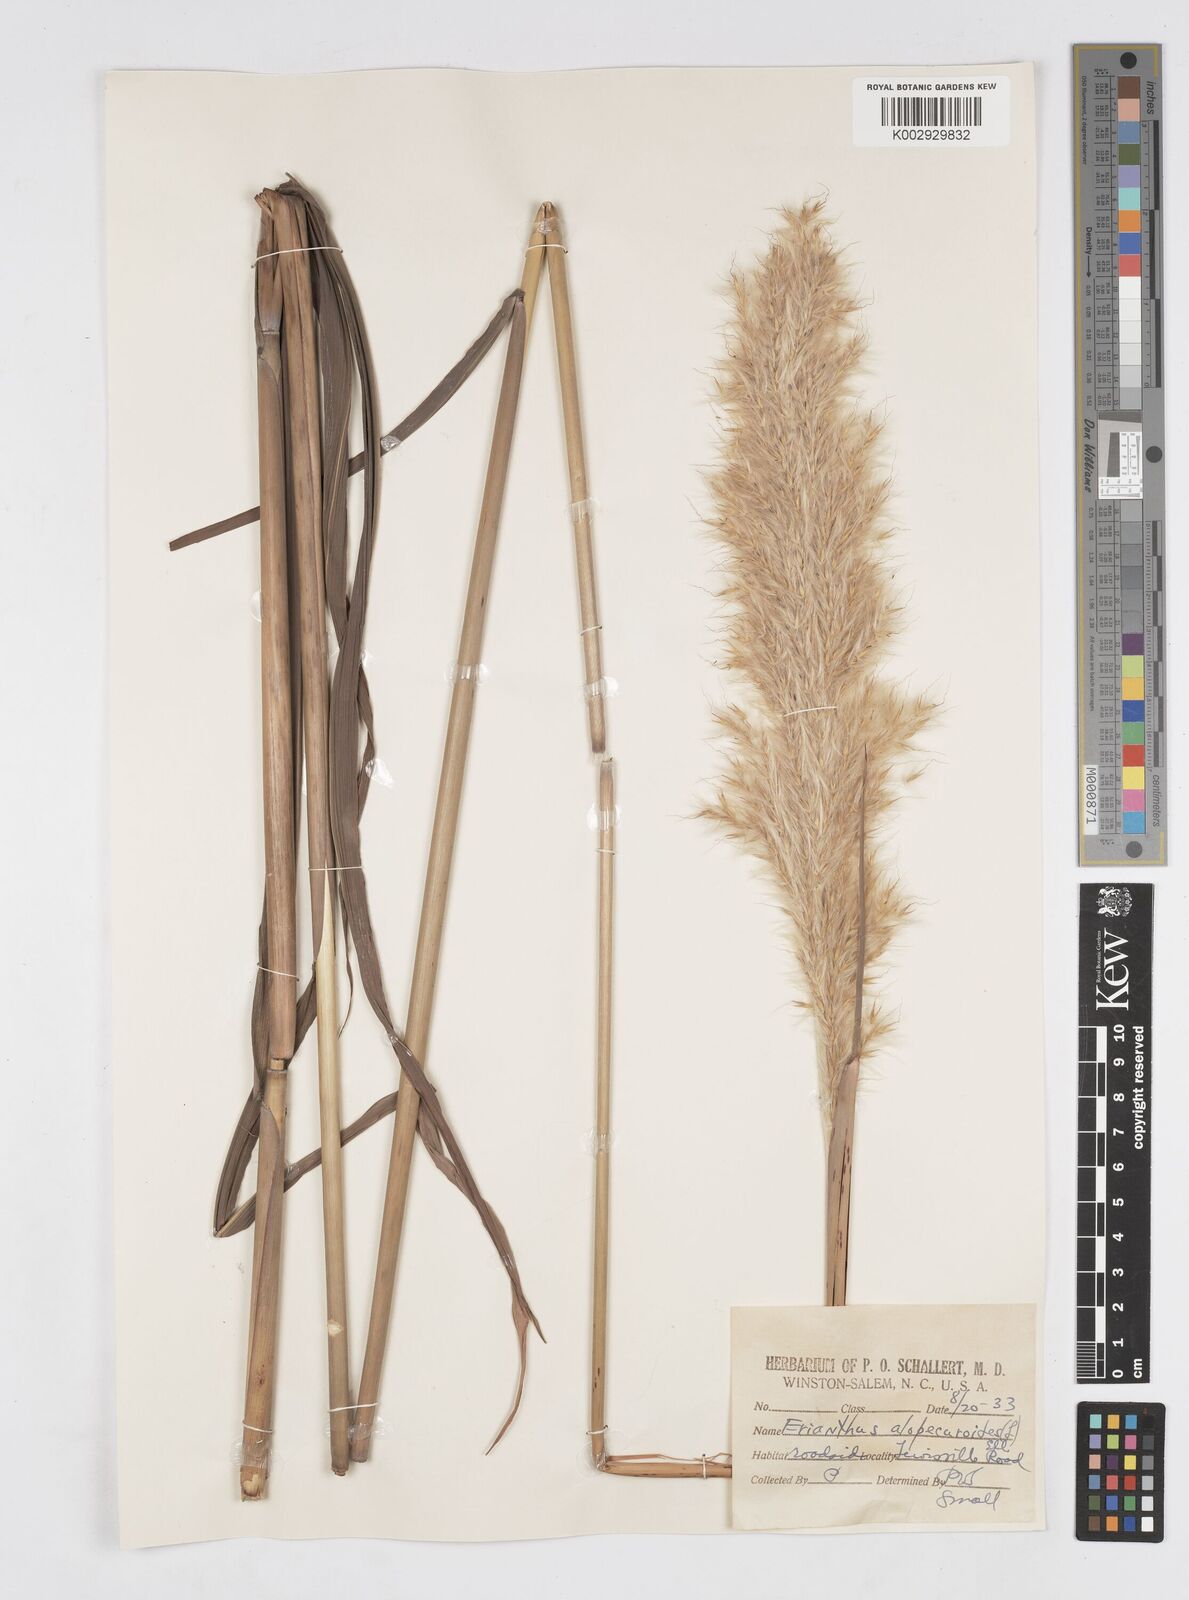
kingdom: Plantae
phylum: Tracheophyta
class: Liliopsida
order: Poales
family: Poaceae
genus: Erianthus
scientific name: Erianthus alopecuroides
